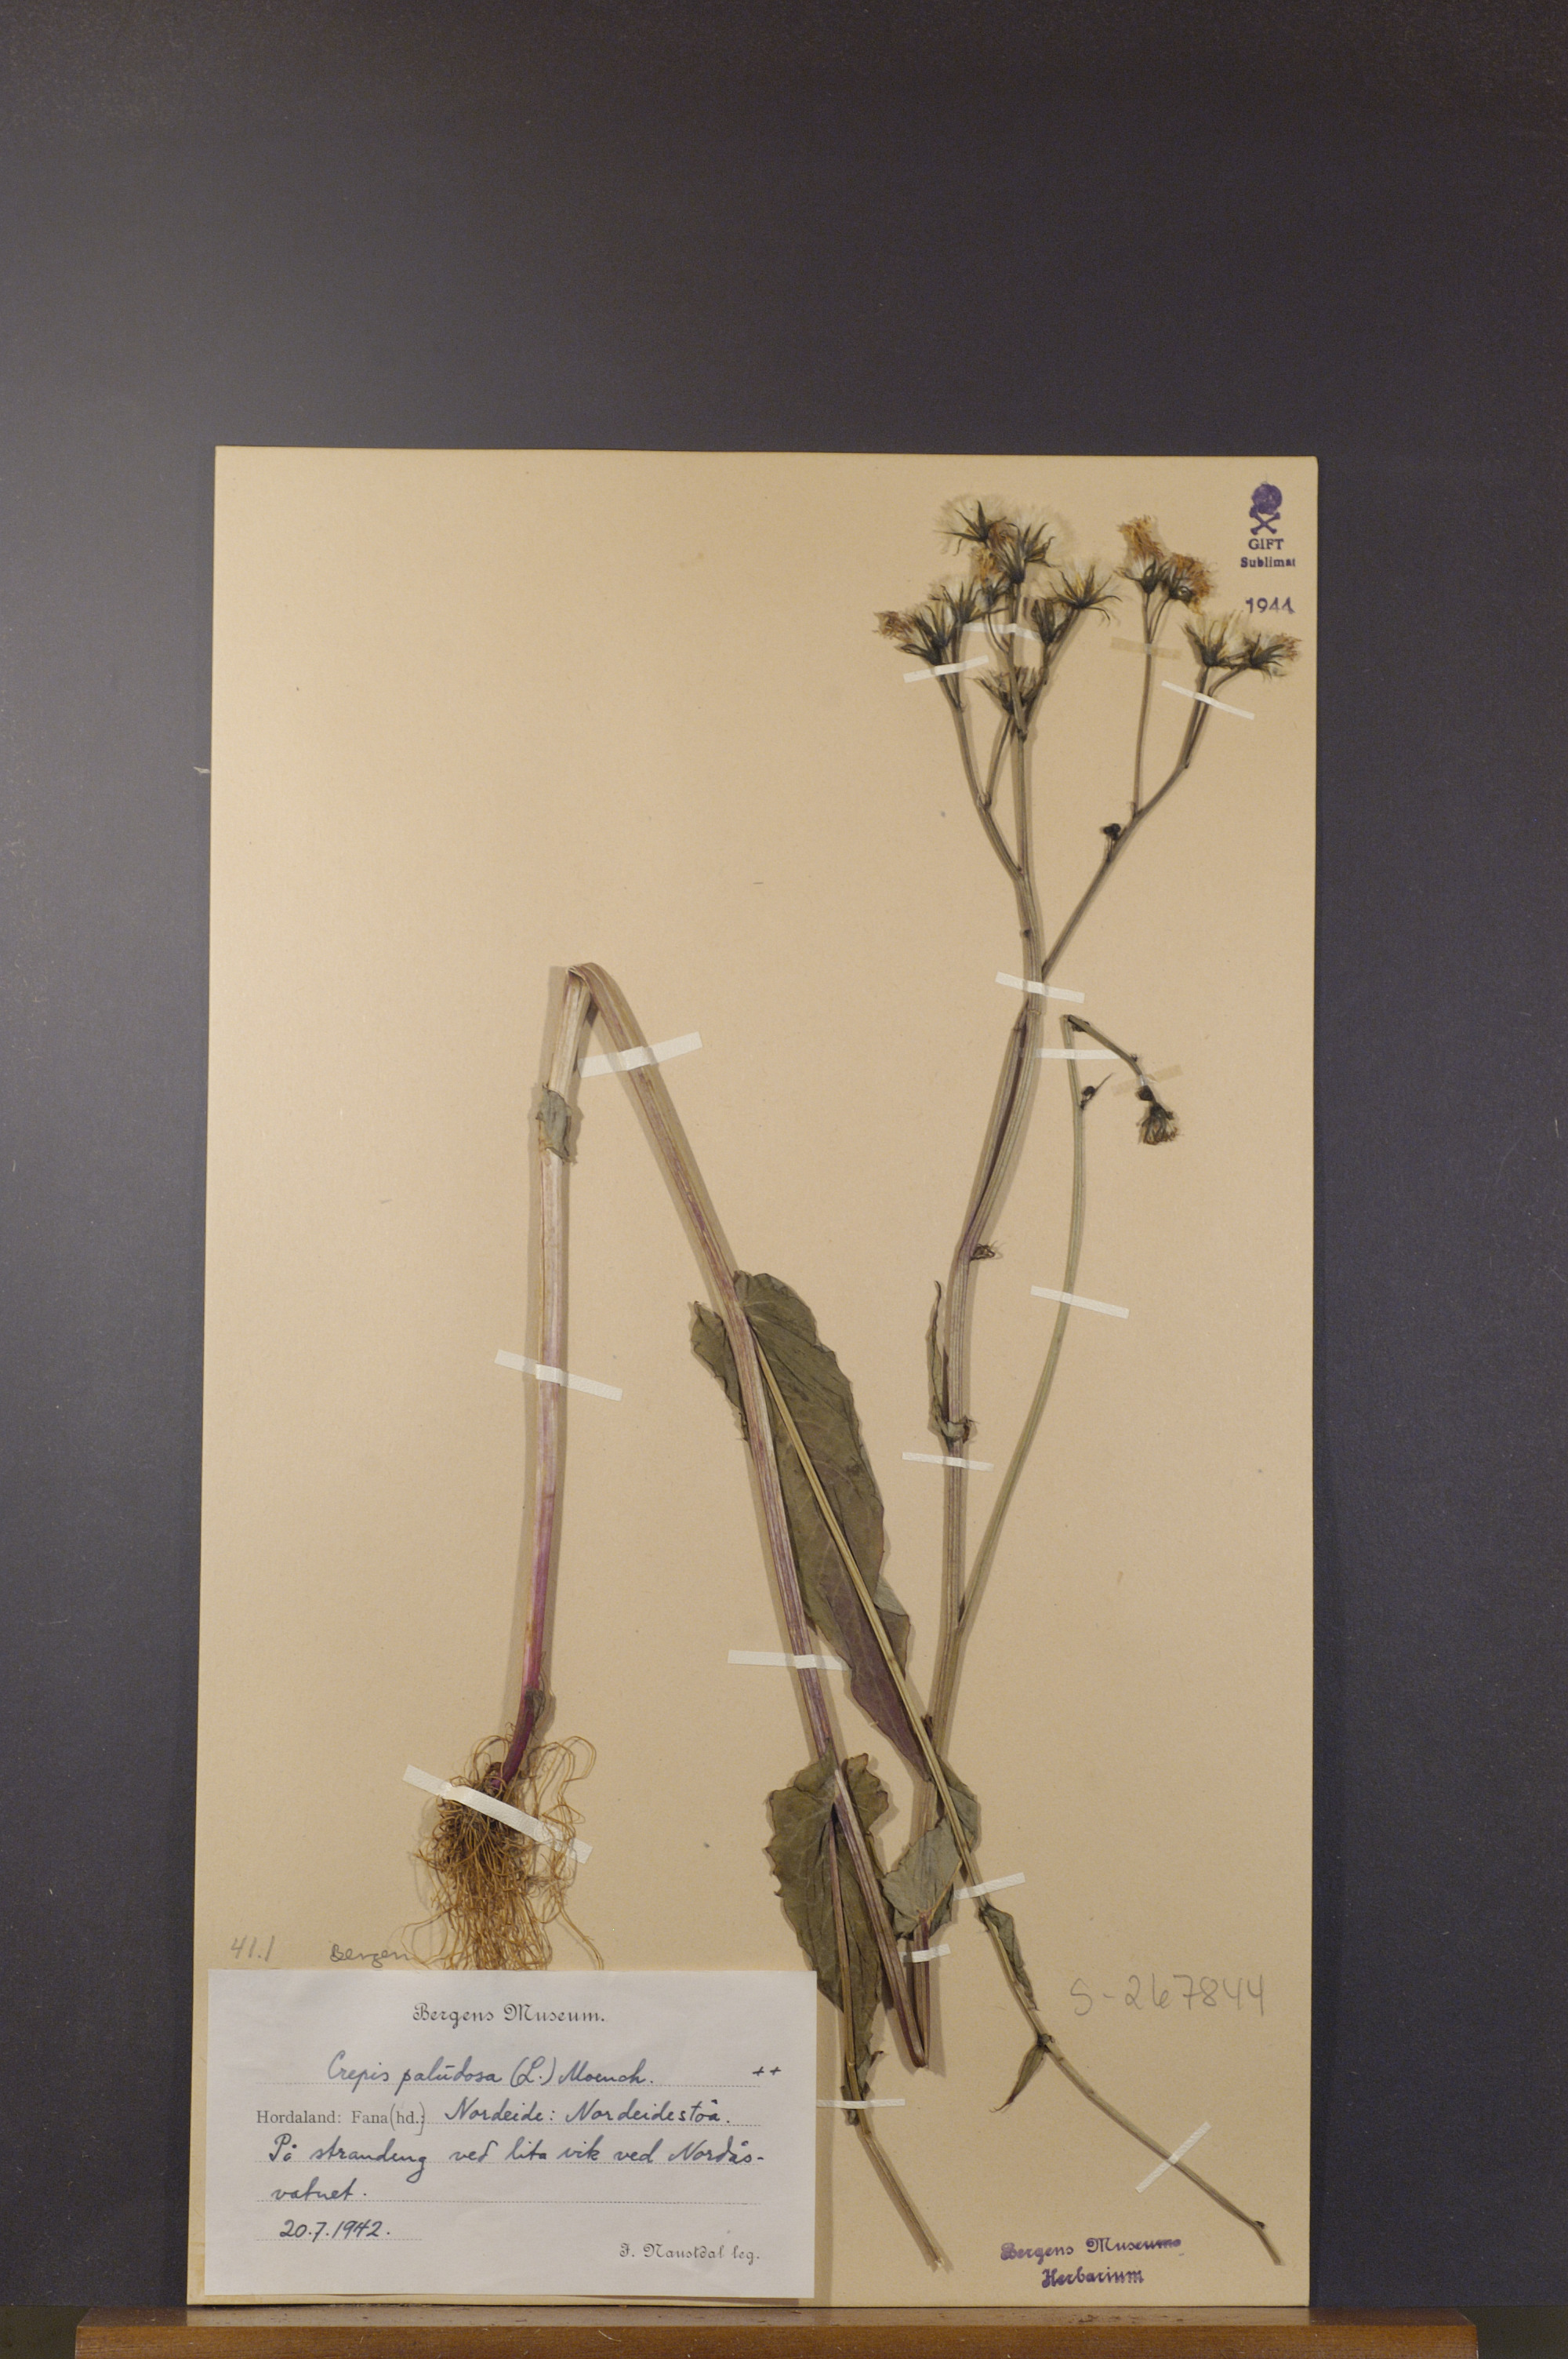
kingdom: Plantae
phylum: Tracheophyta
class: Magnoliopsida
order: Asterales
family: Asteraceae
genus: Crepis
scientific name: Crepis paludosa
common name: Marsh hawk's-beard
